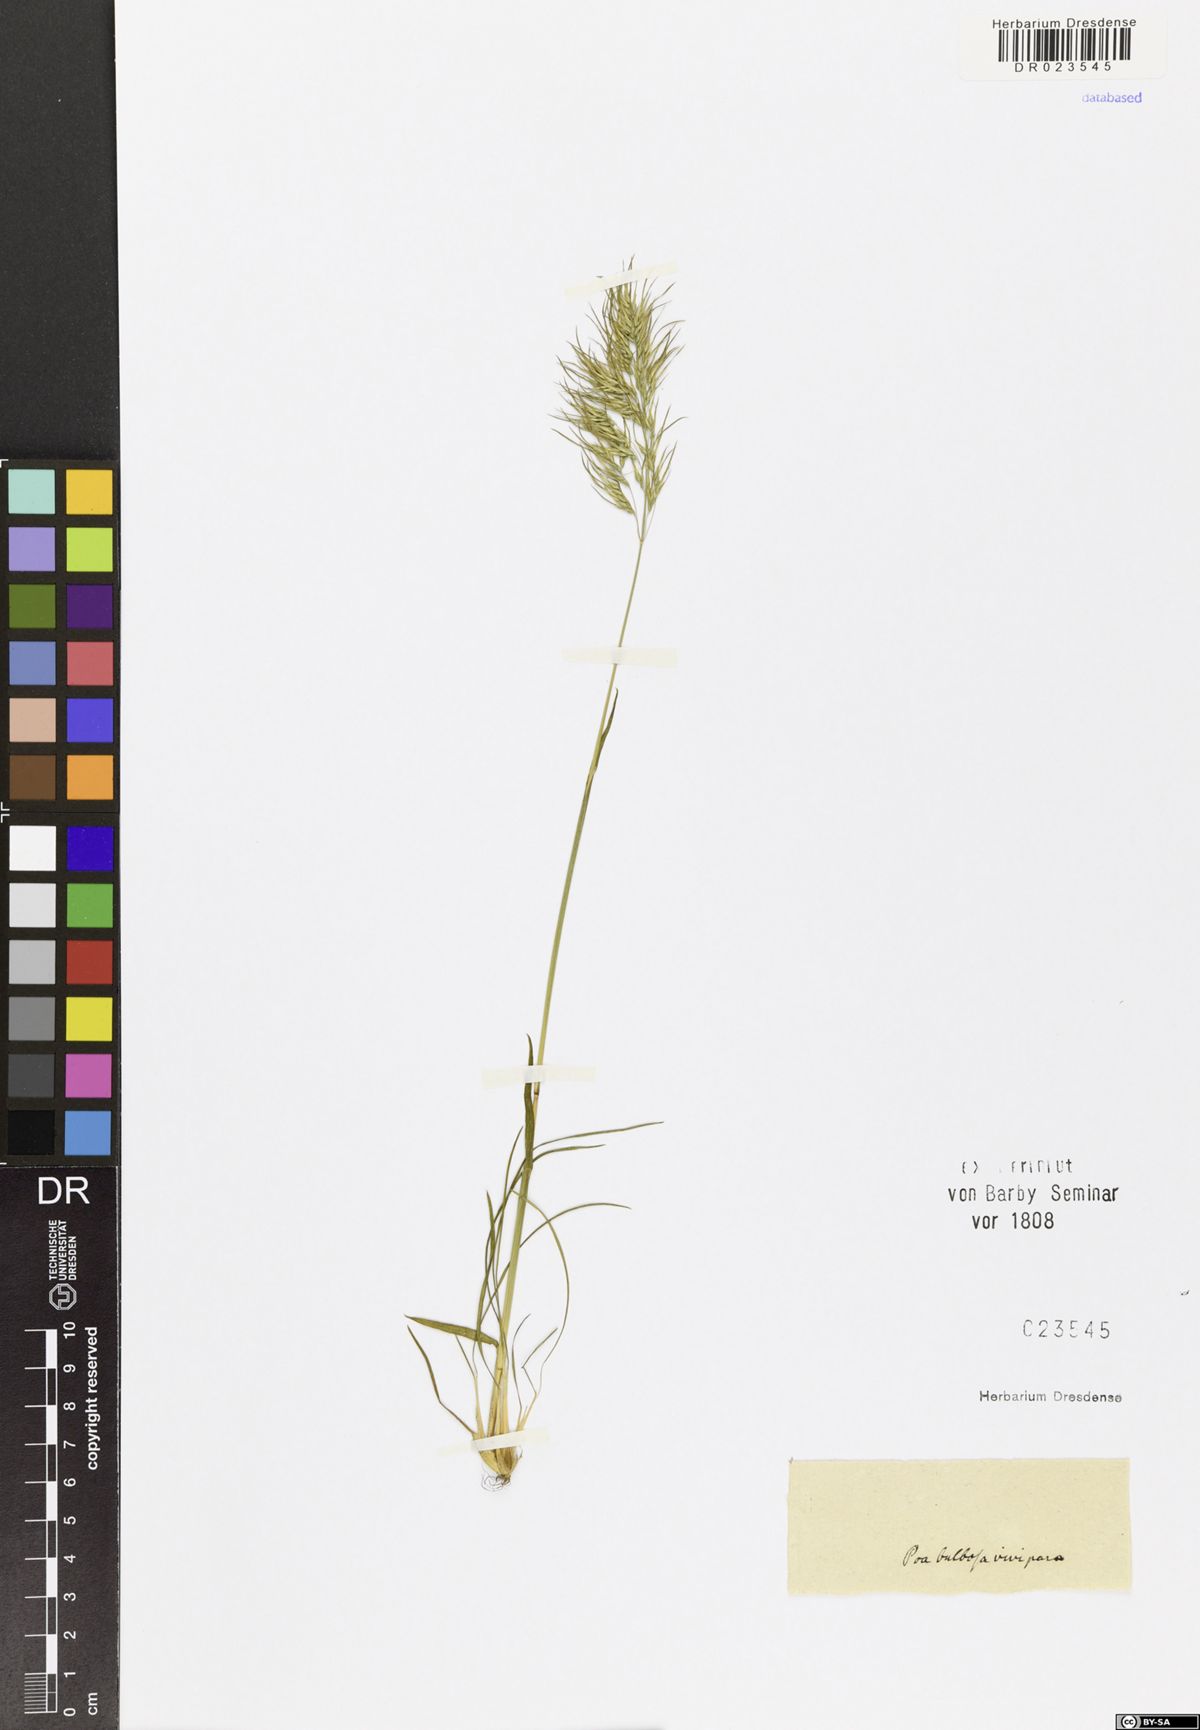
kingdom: Plantae
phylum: Tracheophyta
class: Liliopsida
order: Poales
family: Poaceae
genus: Poa
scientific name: Poa bulbosa
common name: Bulbous bluegrass
